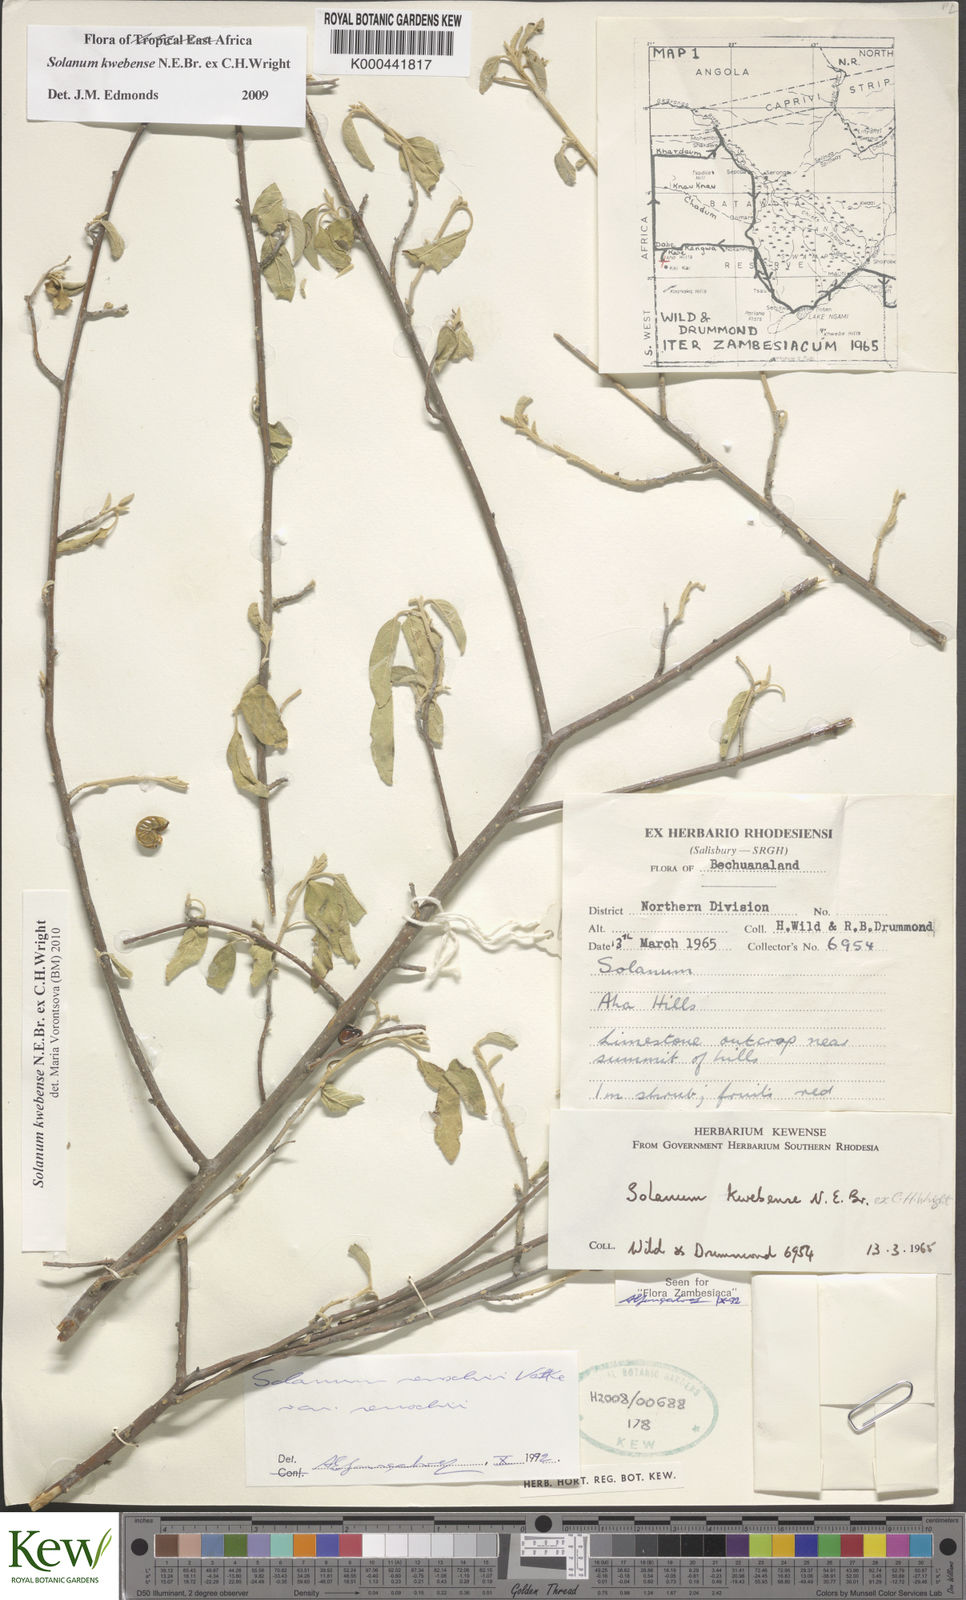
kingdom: Plantae
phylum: Tracheophyta
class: Magnoliopsida
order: Solanales
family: Solanaceae
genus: Solanum
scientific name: Solanum tettense
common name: Mozambique bitter apple
